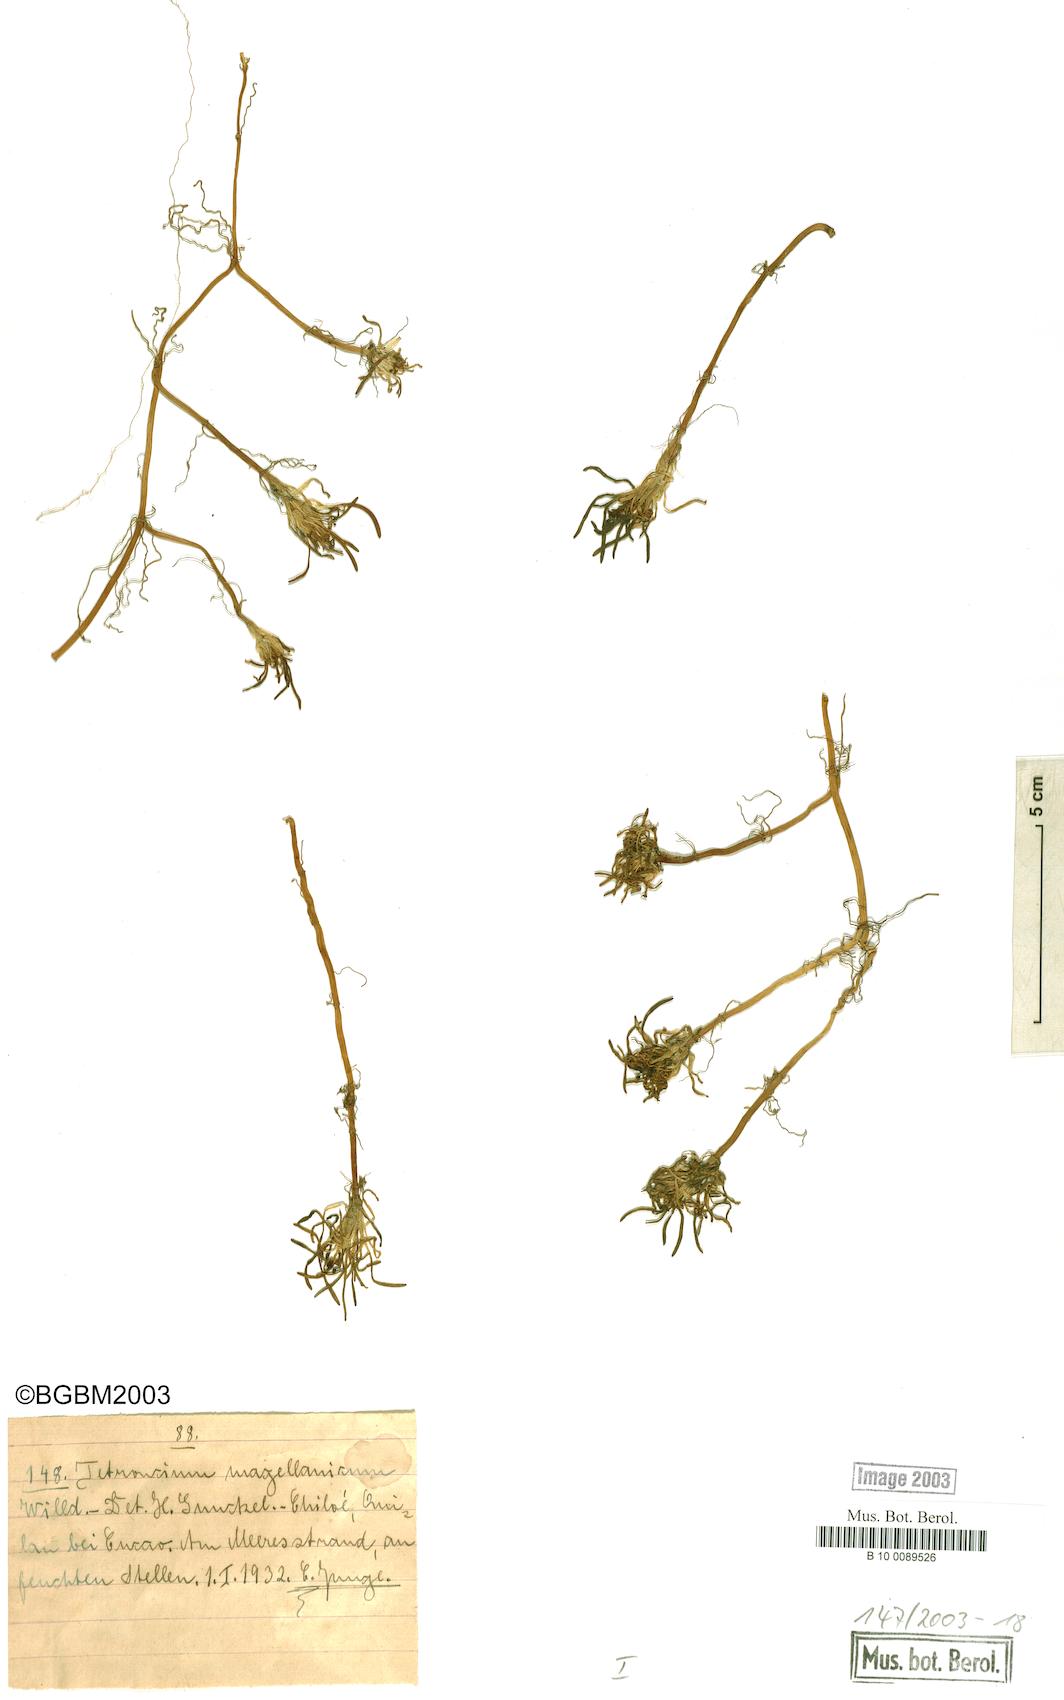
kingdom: Plantae
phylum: Tracheophyta
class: Liliopsida
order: Alismatales
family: Juncaginaceae
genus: Tetroncium
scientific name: Tetroncium magellanicum
